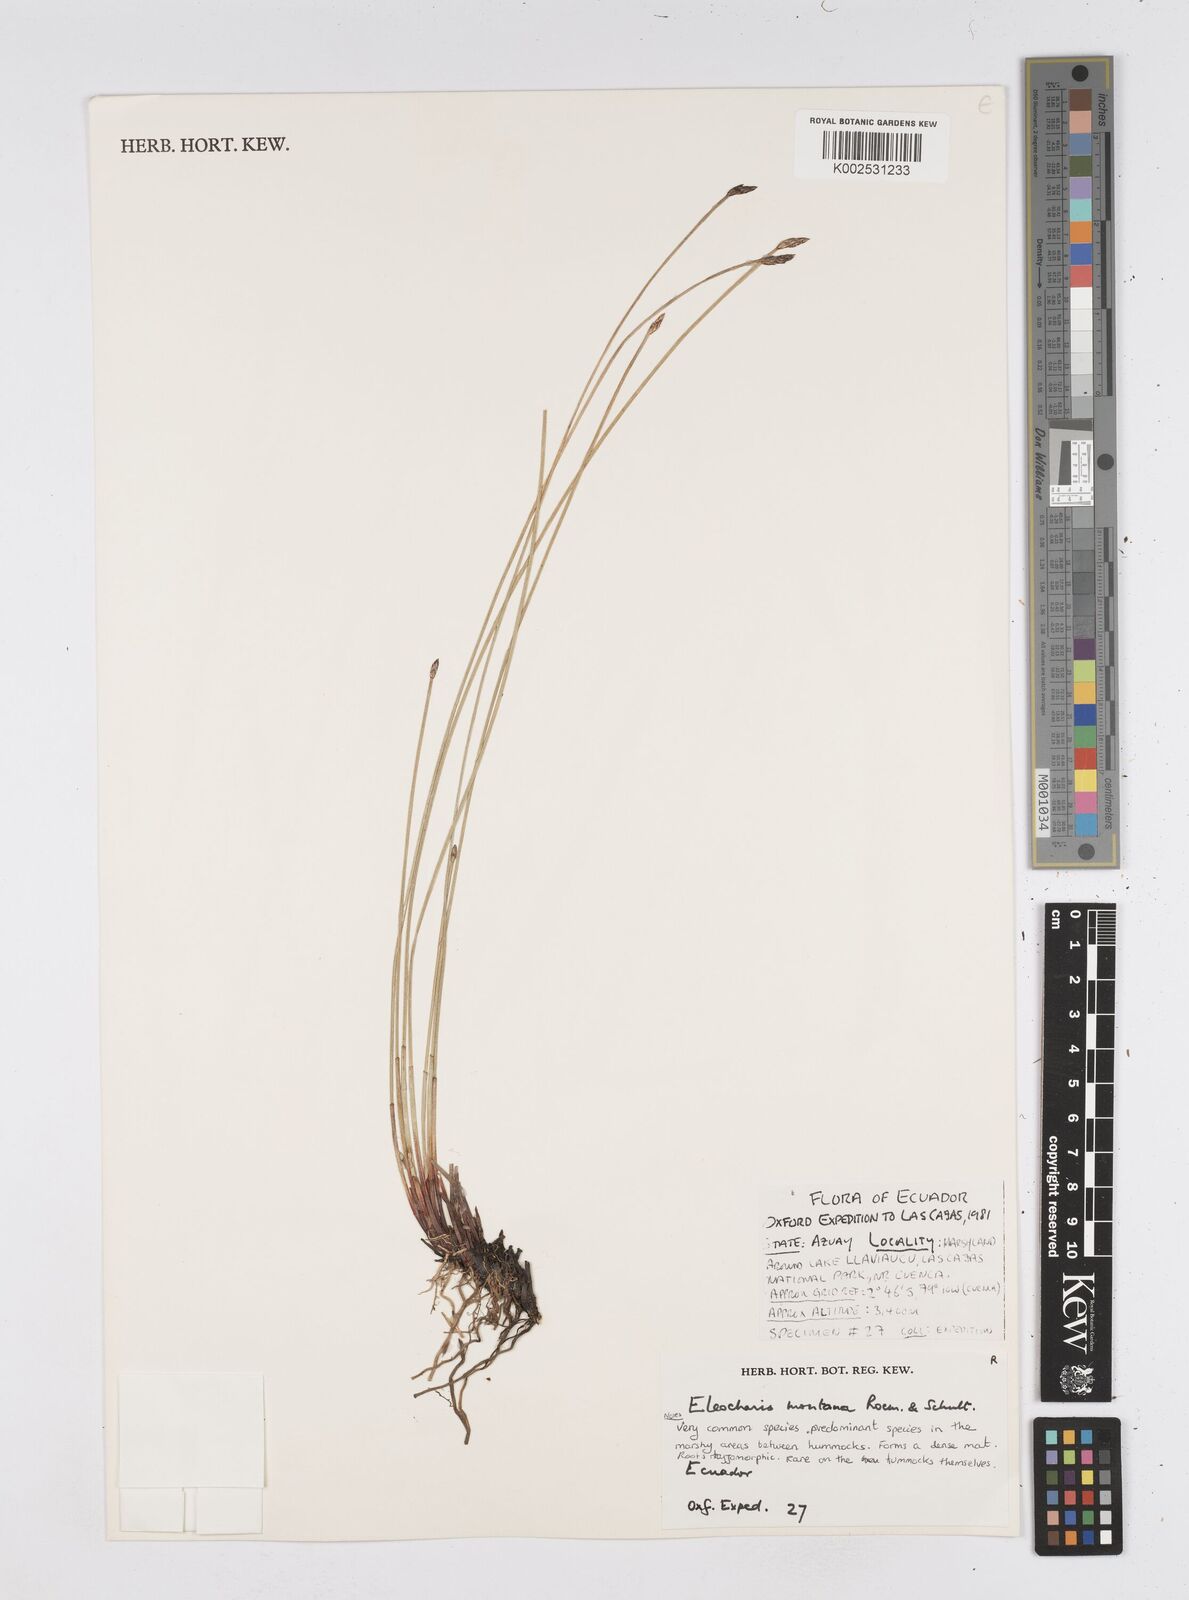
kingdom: Plantae
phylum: Tracheophyta
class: Liliopsida
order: Poales
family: Cyperaceae
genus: Eleocharis
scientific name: Eleocharis montana
